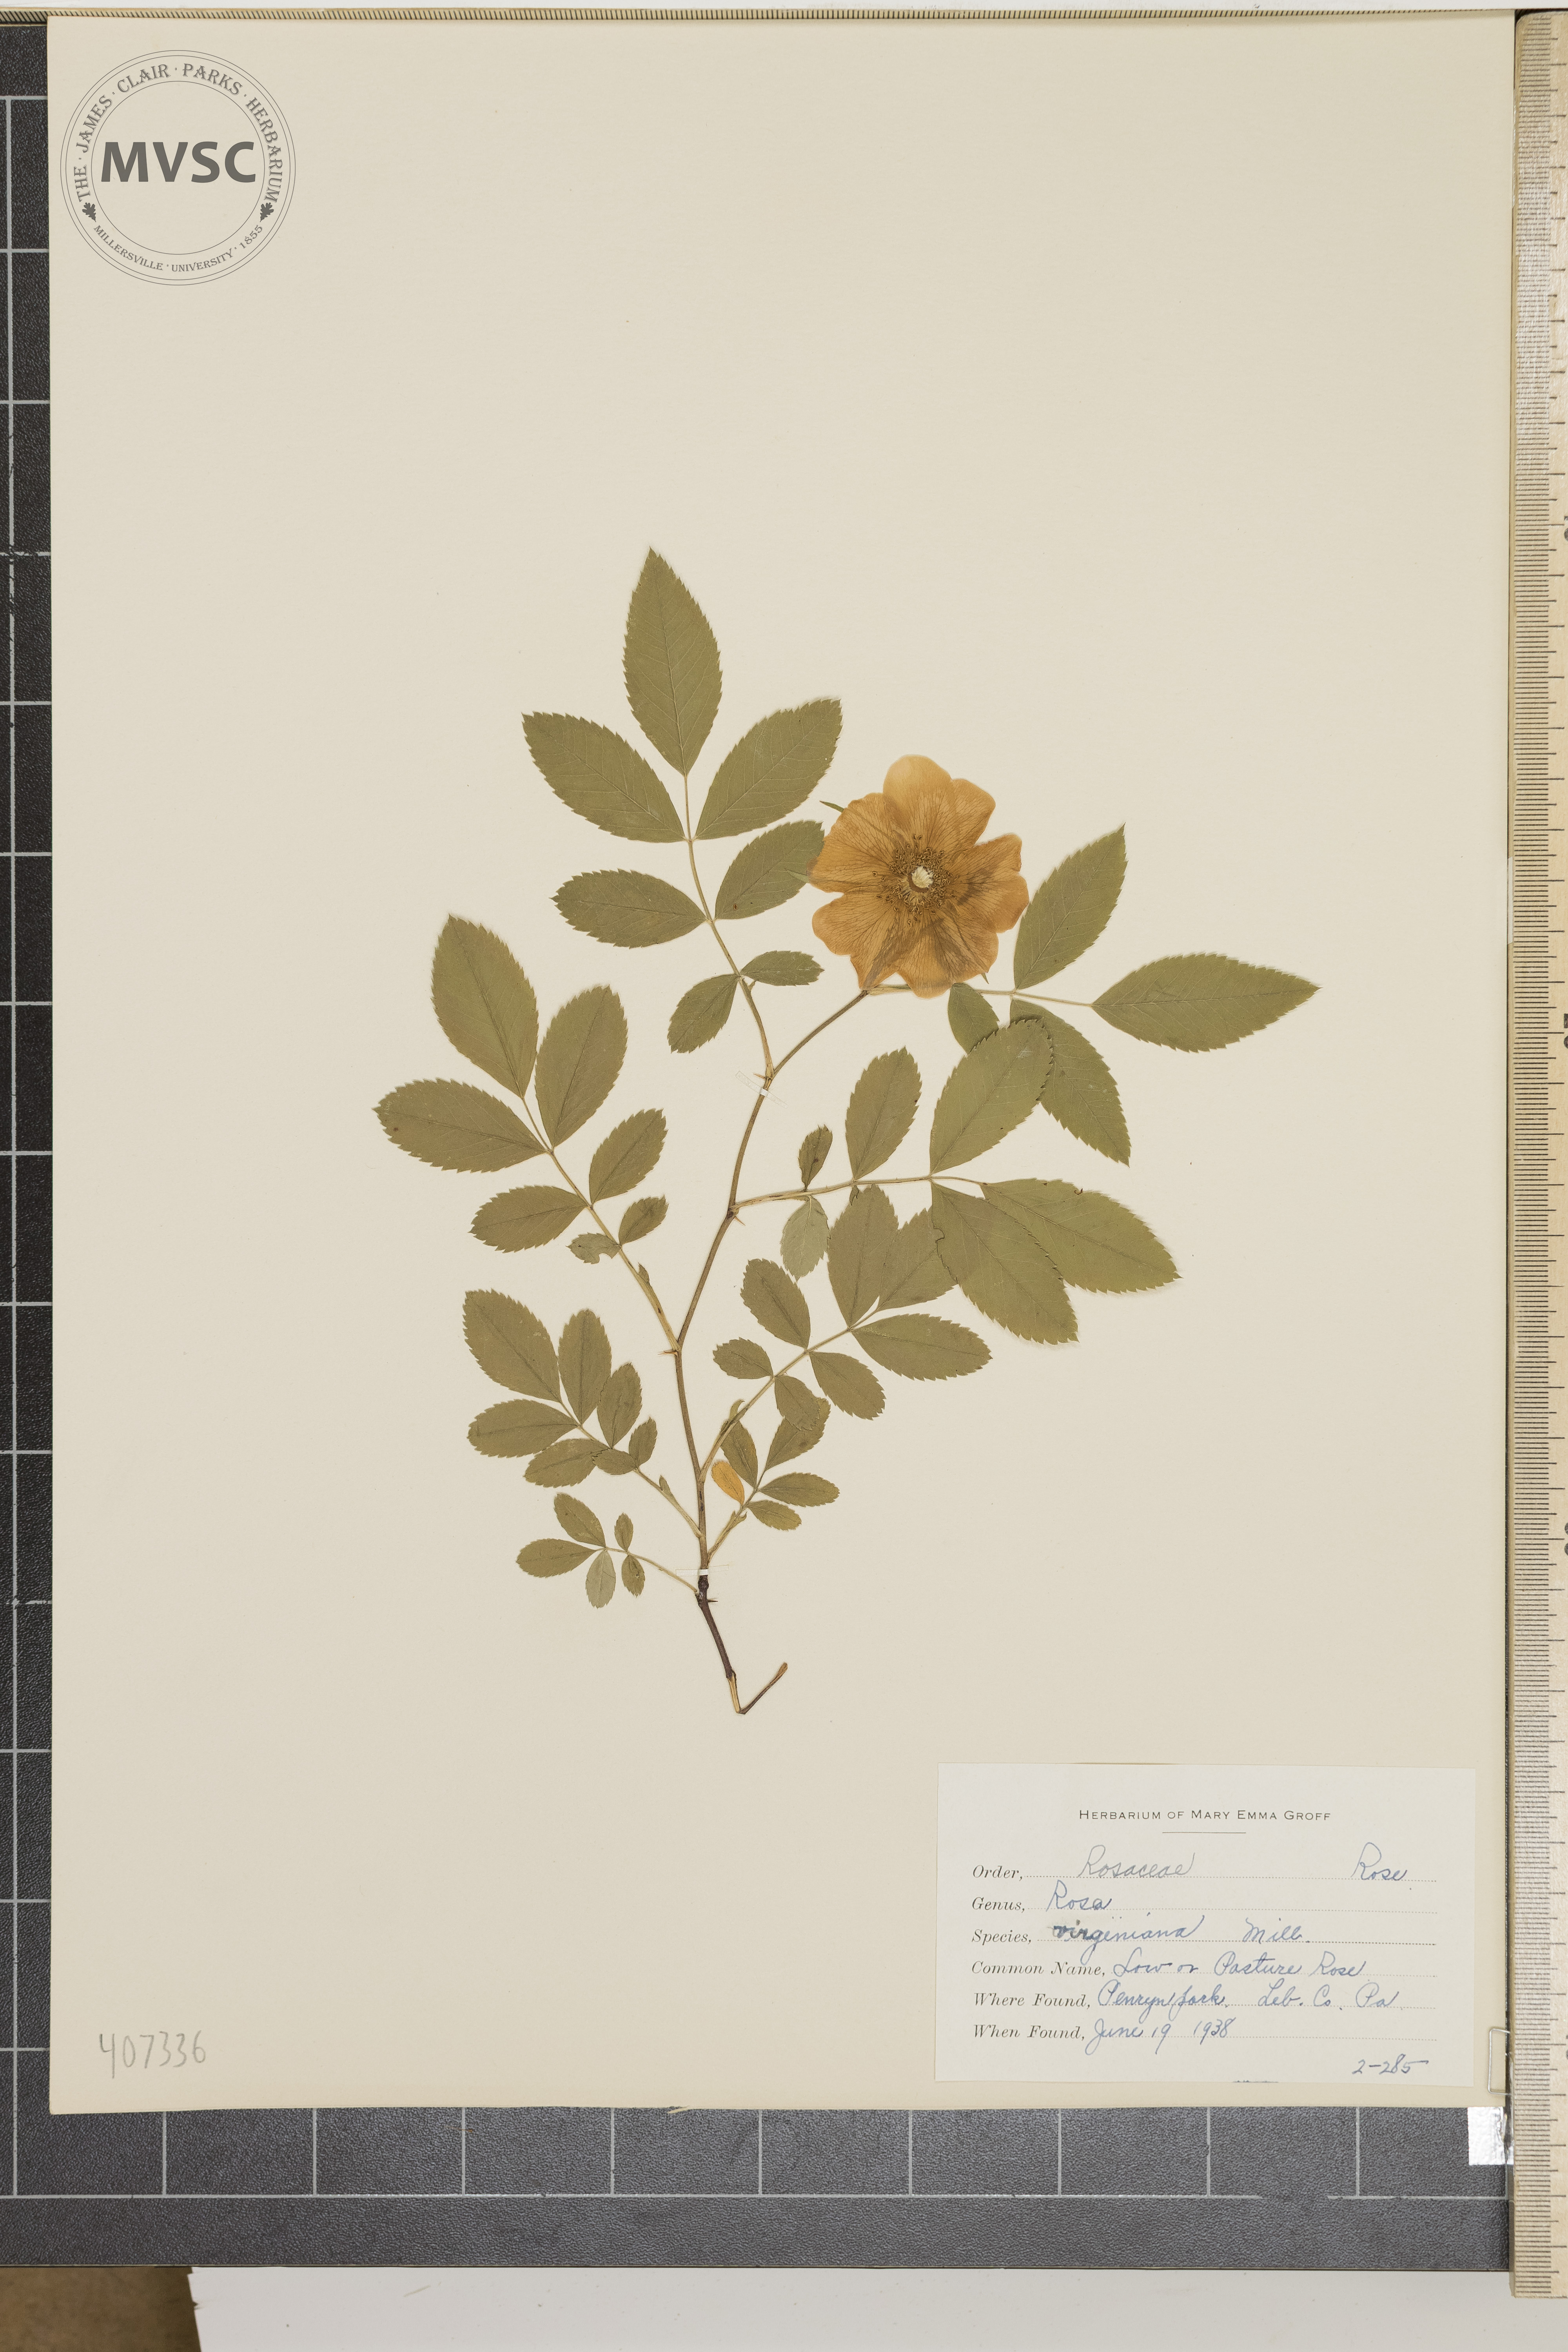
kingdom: Plantae
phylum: Tracheophyta
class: Magnoliopsida
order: Rosales
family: Rosaceae
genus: Rosa
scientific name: Rosa virginiana
